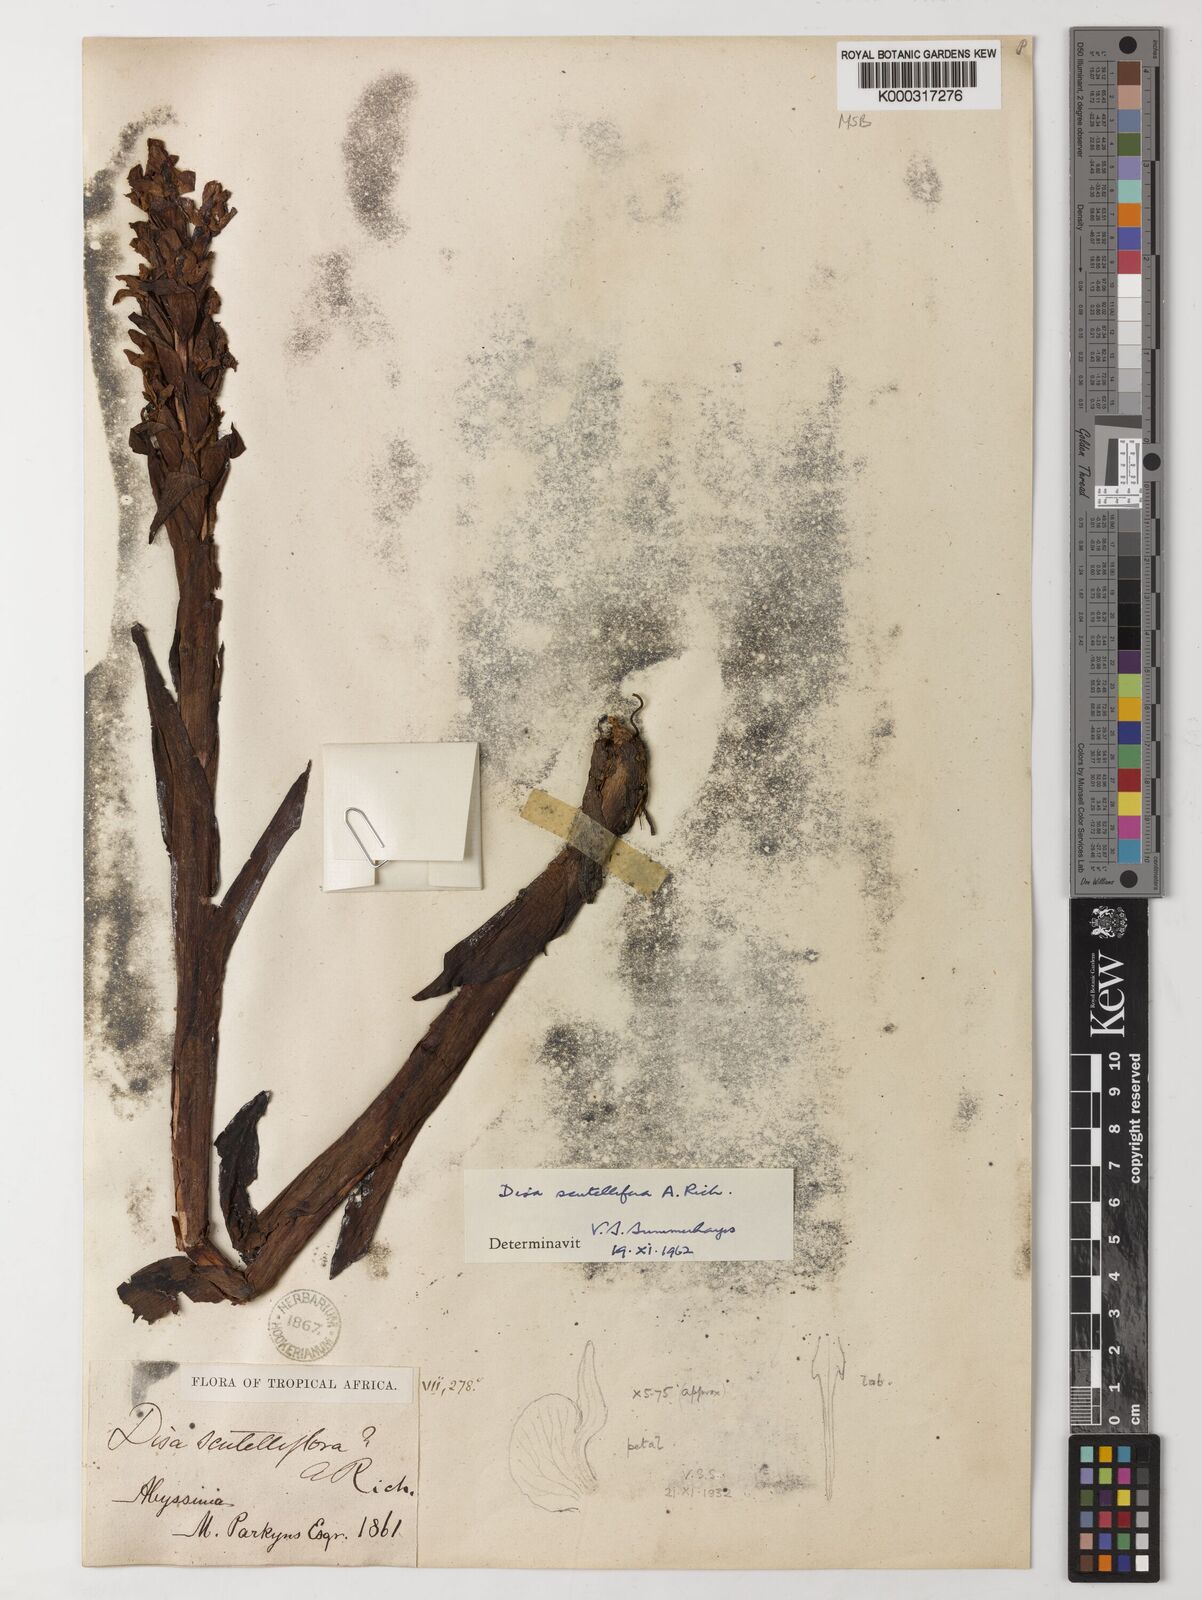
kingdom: Plantae
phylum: Tracheophyta
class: Liliopsida
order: Asparagales
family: Orchidaceae
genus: Disa
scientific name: Disa scutellifera
